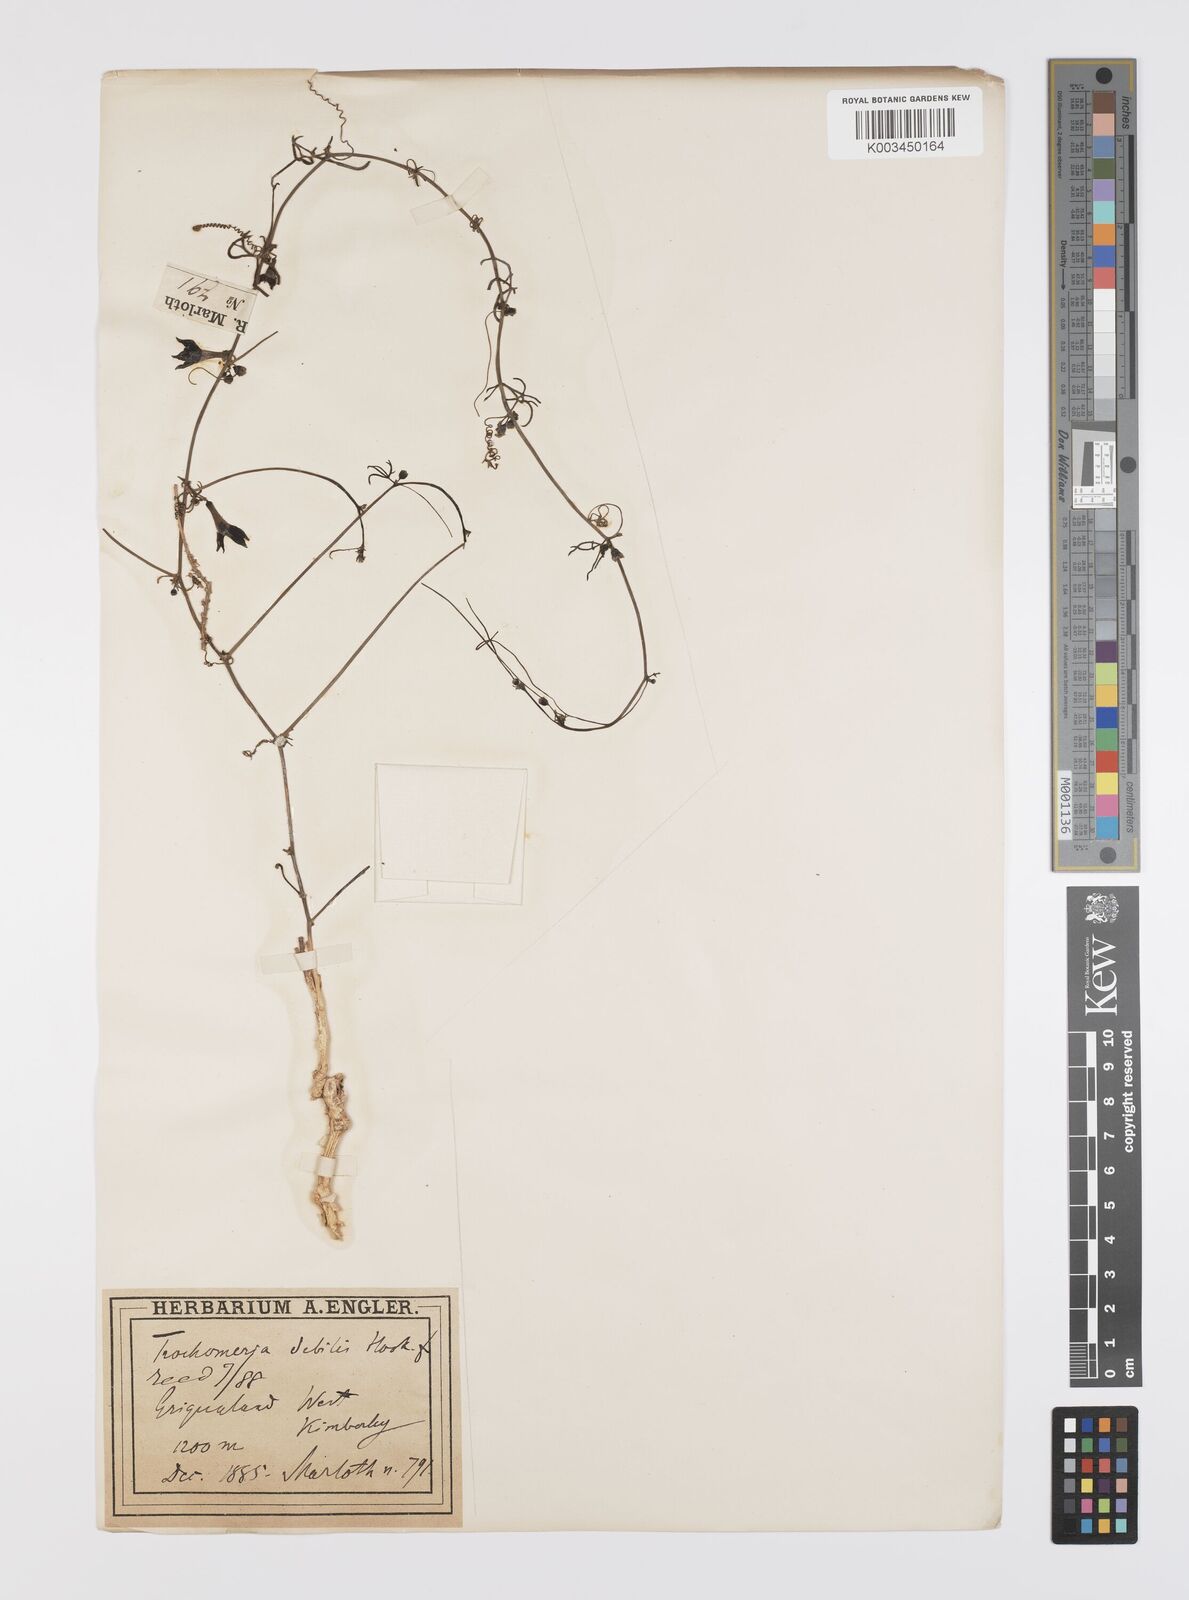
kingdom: Plantae
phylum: Tracheophyta
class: Magnoliopsida
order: Cucurbitales
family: Cucurbitaceae
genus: Trochomeria
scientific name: Trochomeria debilis
